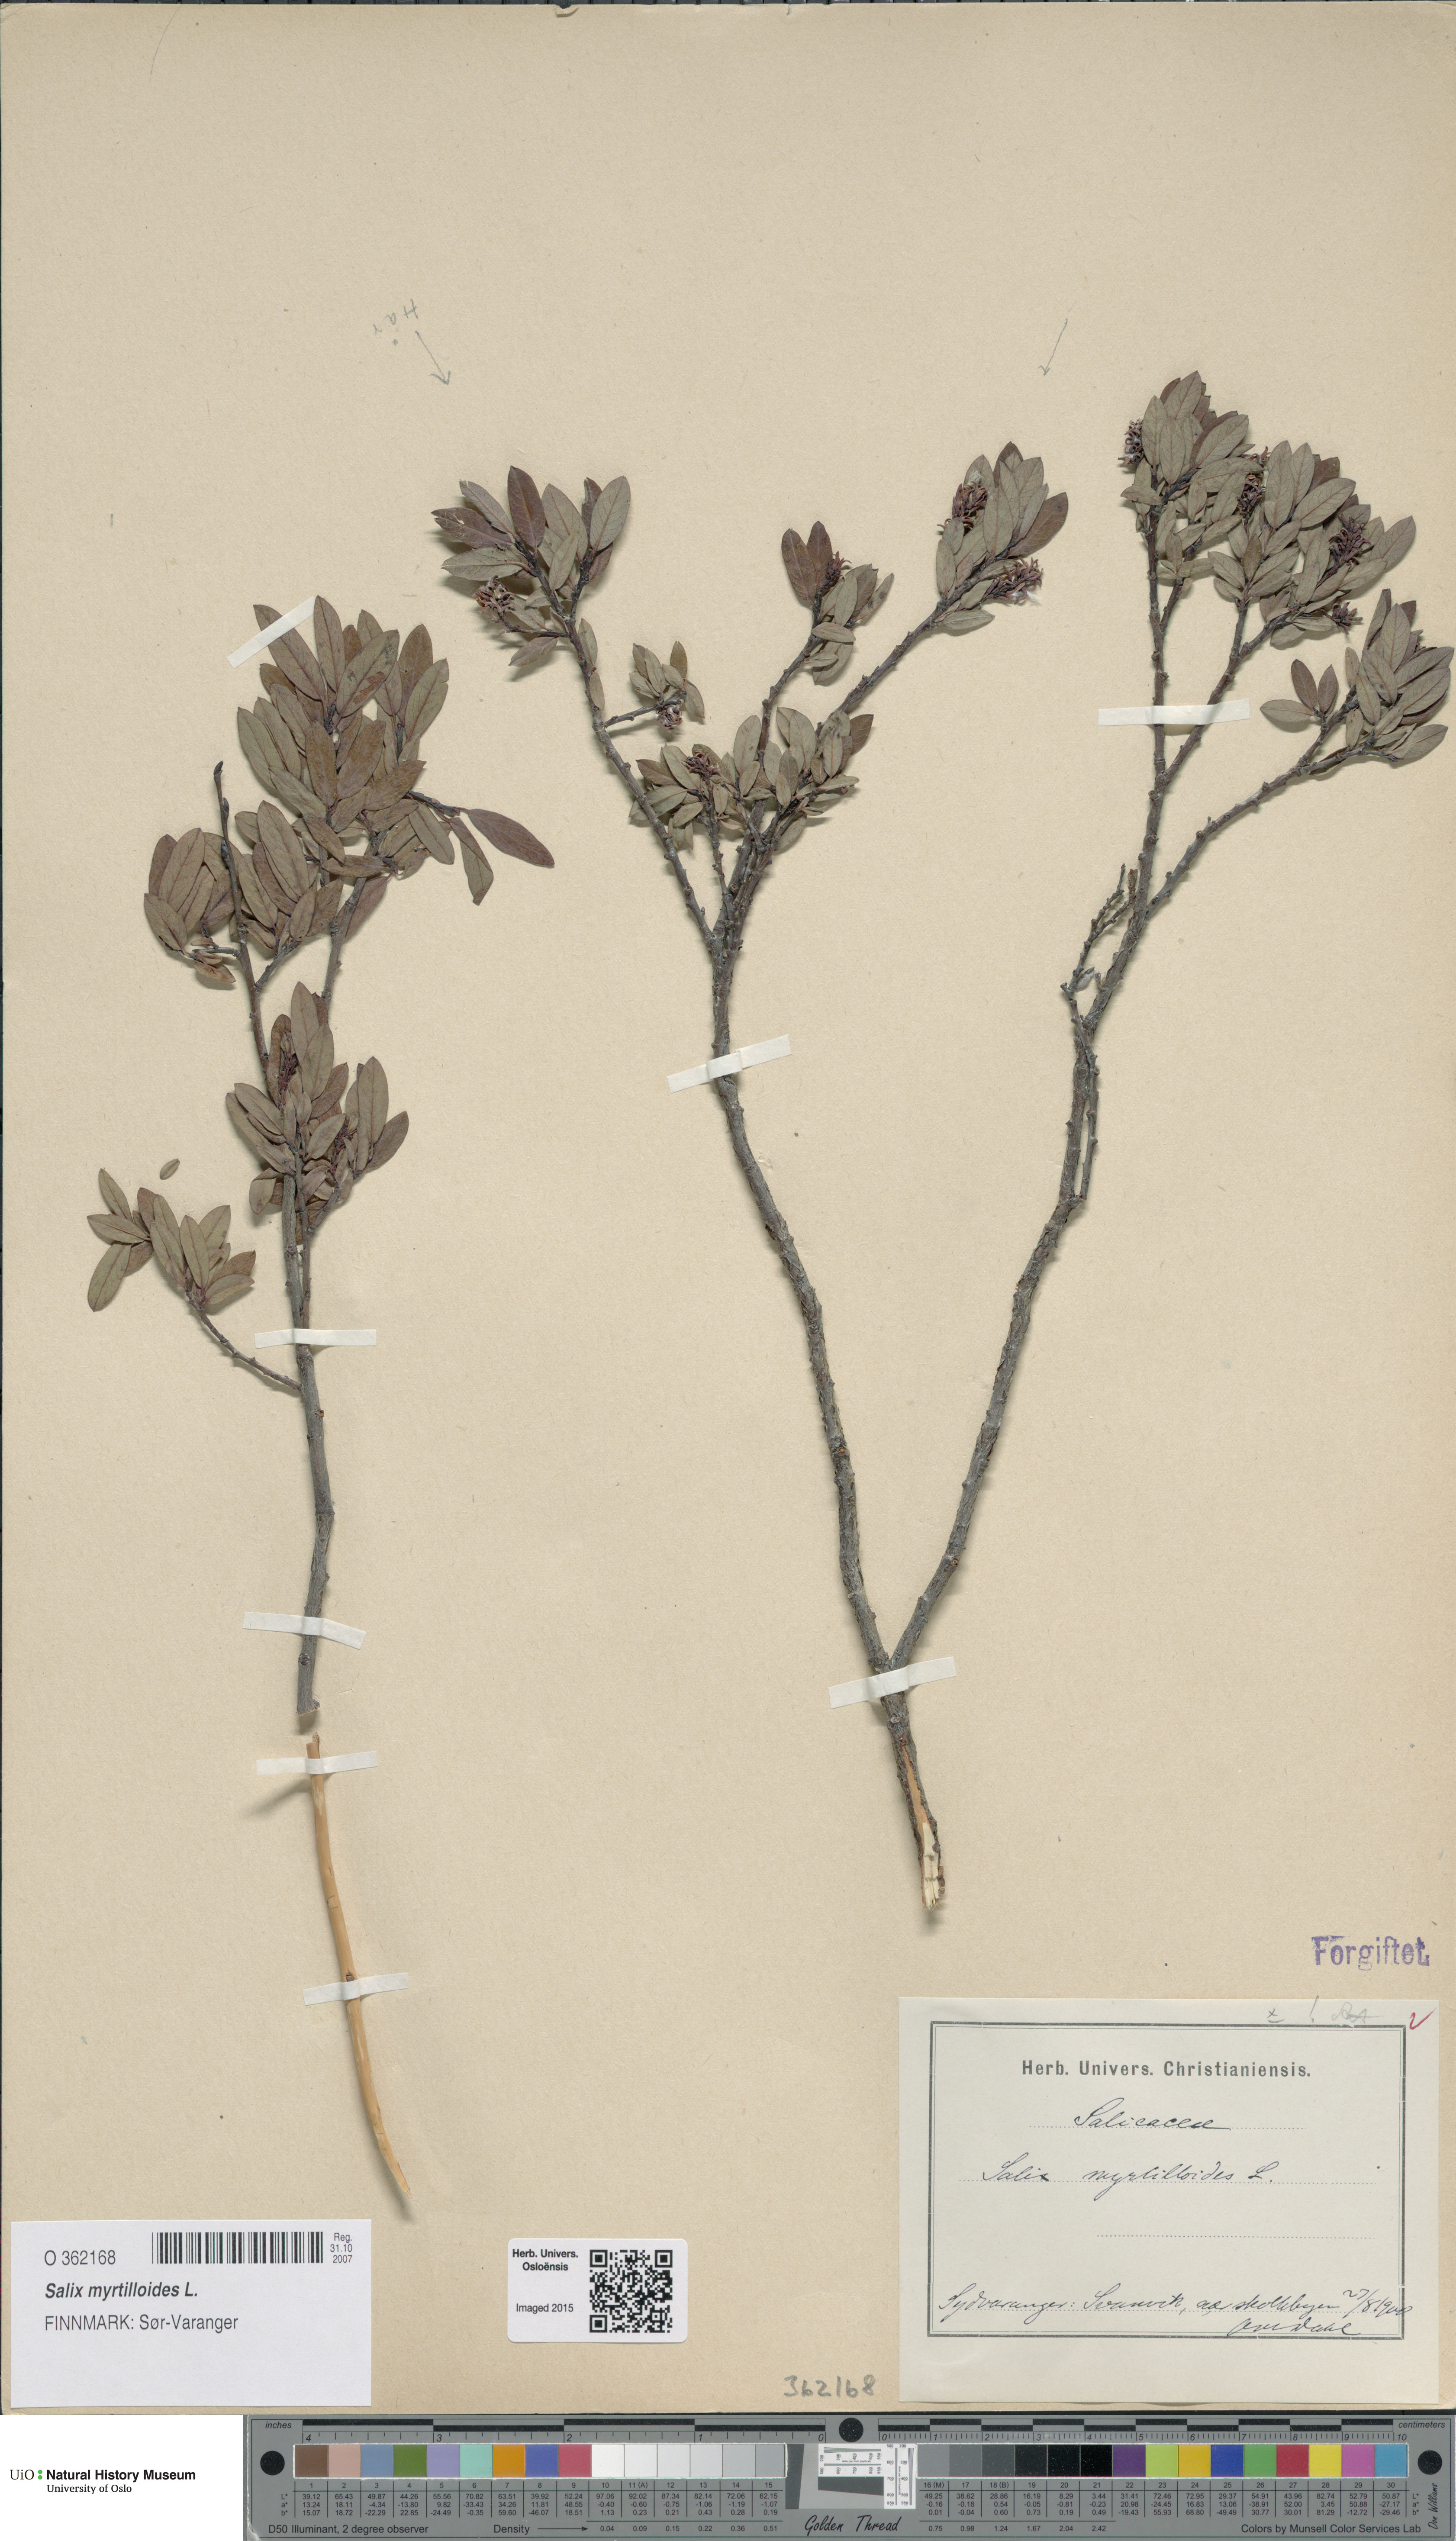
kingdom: Plantae
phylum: Tracheophyta
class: Magnoliopsida
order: Malpighiales
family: Salicaceae
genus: Salix
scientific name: Salix myrtilloides
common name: Myrtle-leaved willow
